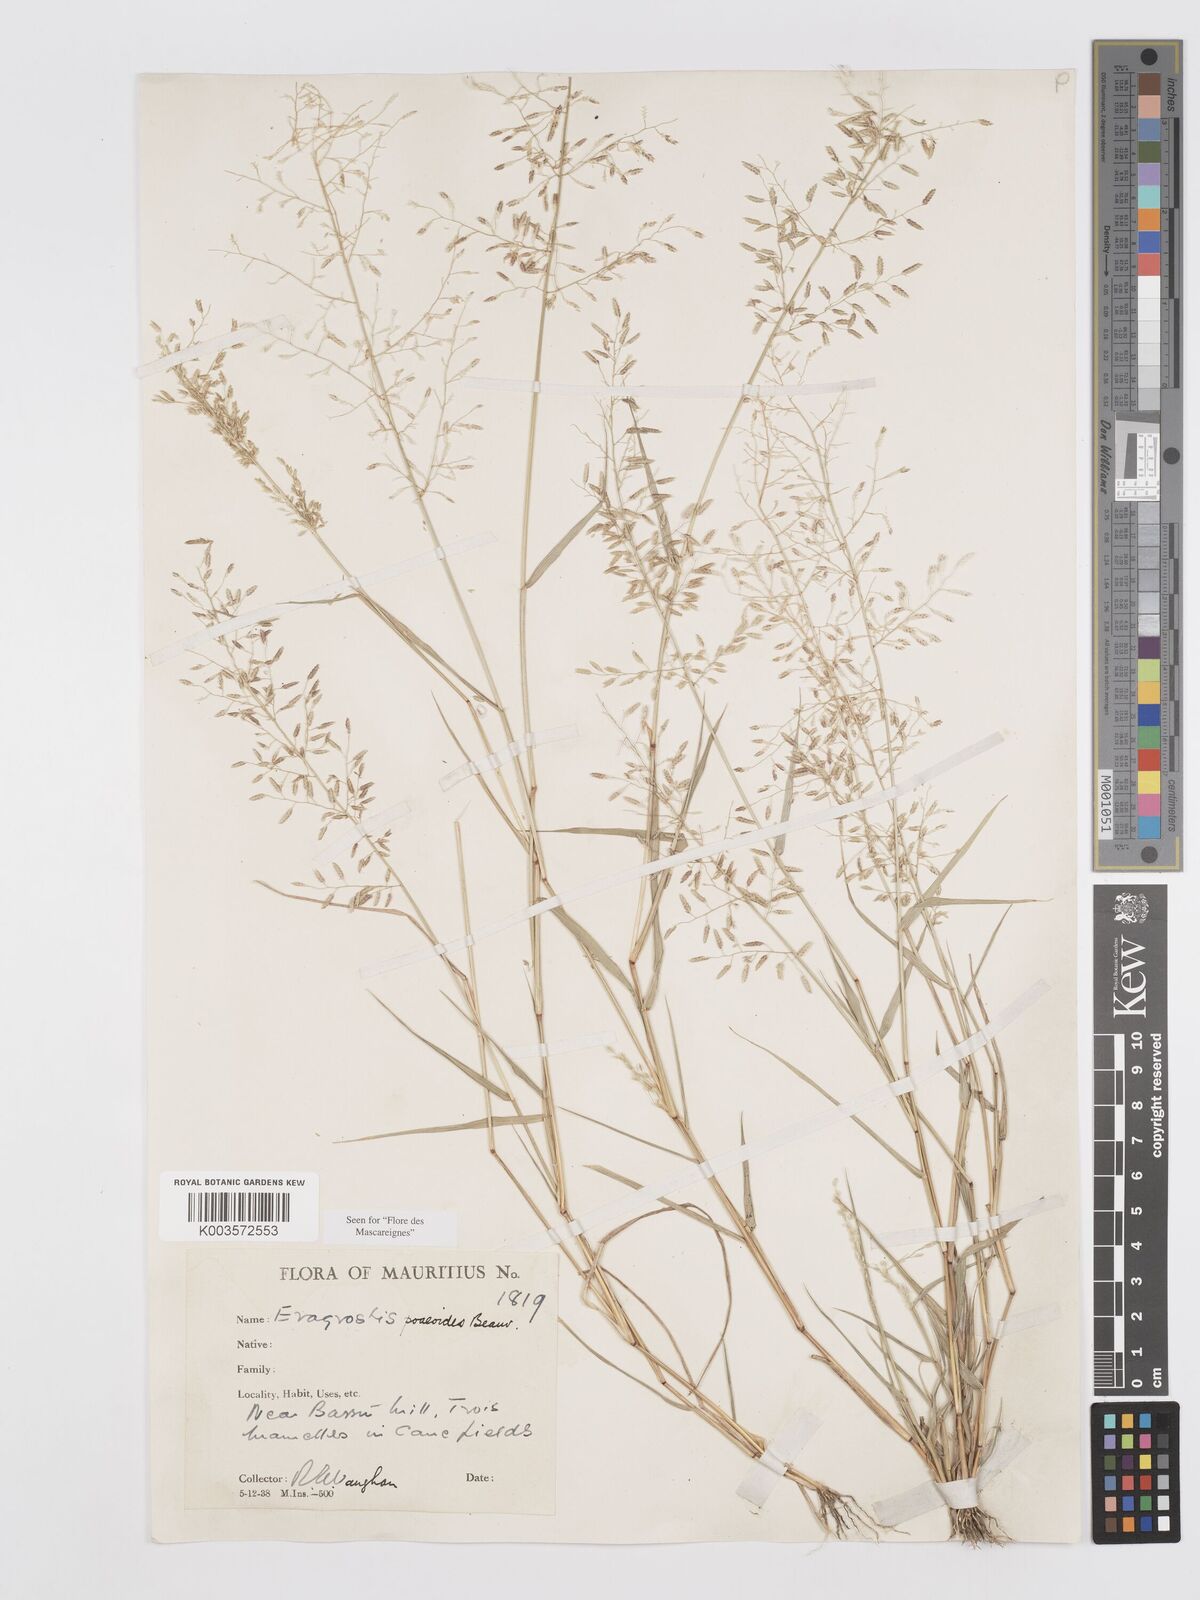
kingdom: Plantae
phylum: Tracheophyta
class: Liliopsida
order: Poales
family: Poaceae
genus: Eragrostis
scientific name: Eragrostis minor
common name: Small love-grass
